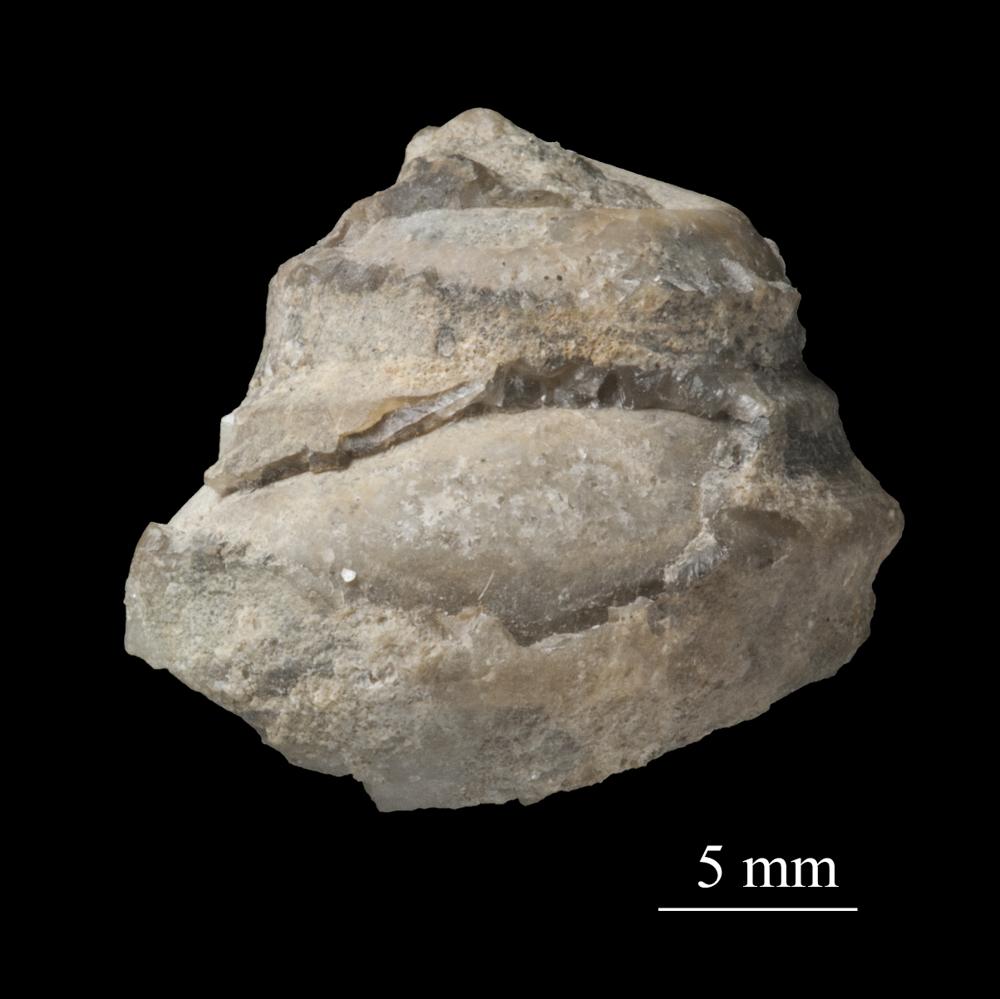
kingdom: Animalia
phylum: Mollusca
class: Gastropoda
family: Lophospiridae
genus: Proturritella
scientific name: Proturritella Turbinites bicarinatus
